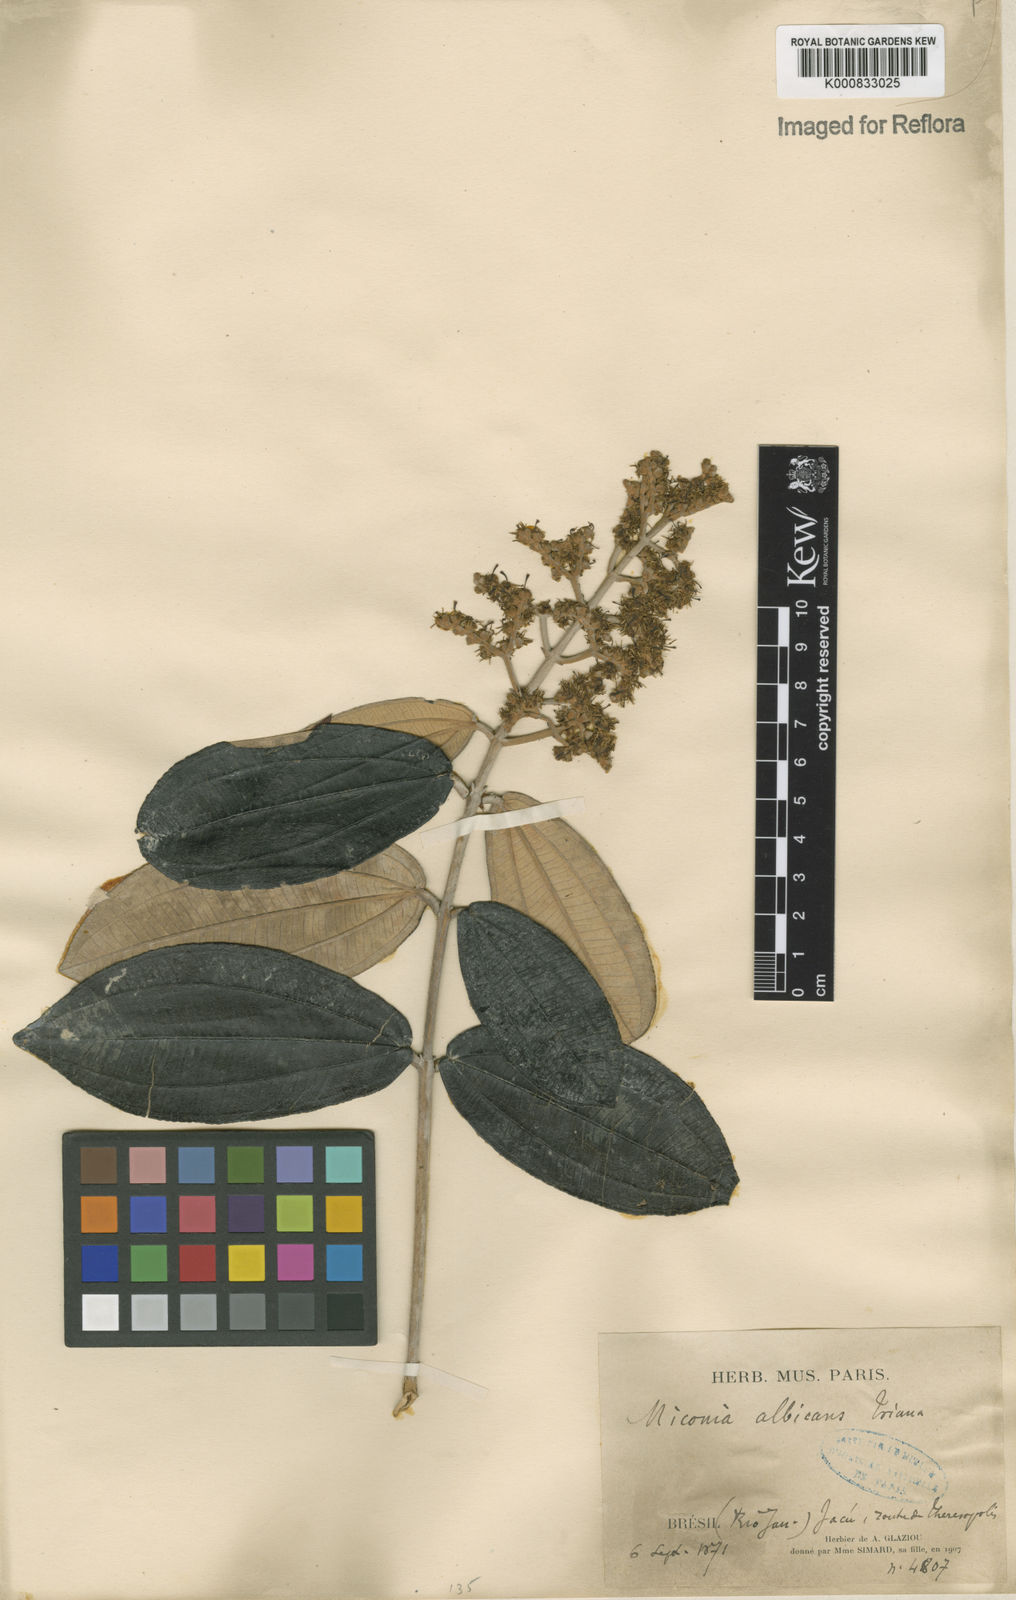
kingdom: Plantae
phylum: Tracheophyta
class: Magnoliopsida
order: Myrtales
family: Melastomataceae
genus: Miconia
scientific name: Miconia albicans
